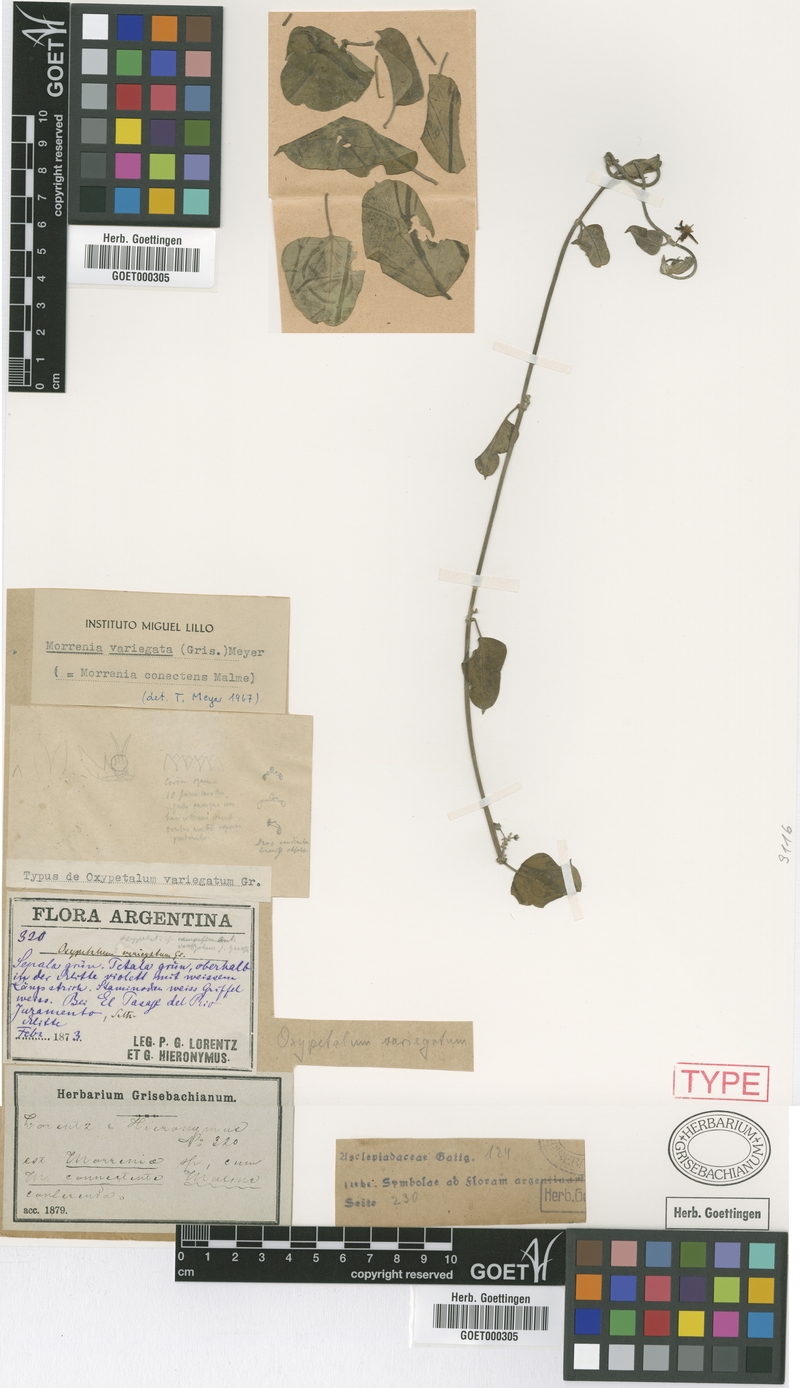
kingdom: Plantae
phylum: Tracheophyta
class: Magnoliopsida
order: Gentianales
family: Apocynaceae
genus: Araujia
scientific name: Araujia variegata
